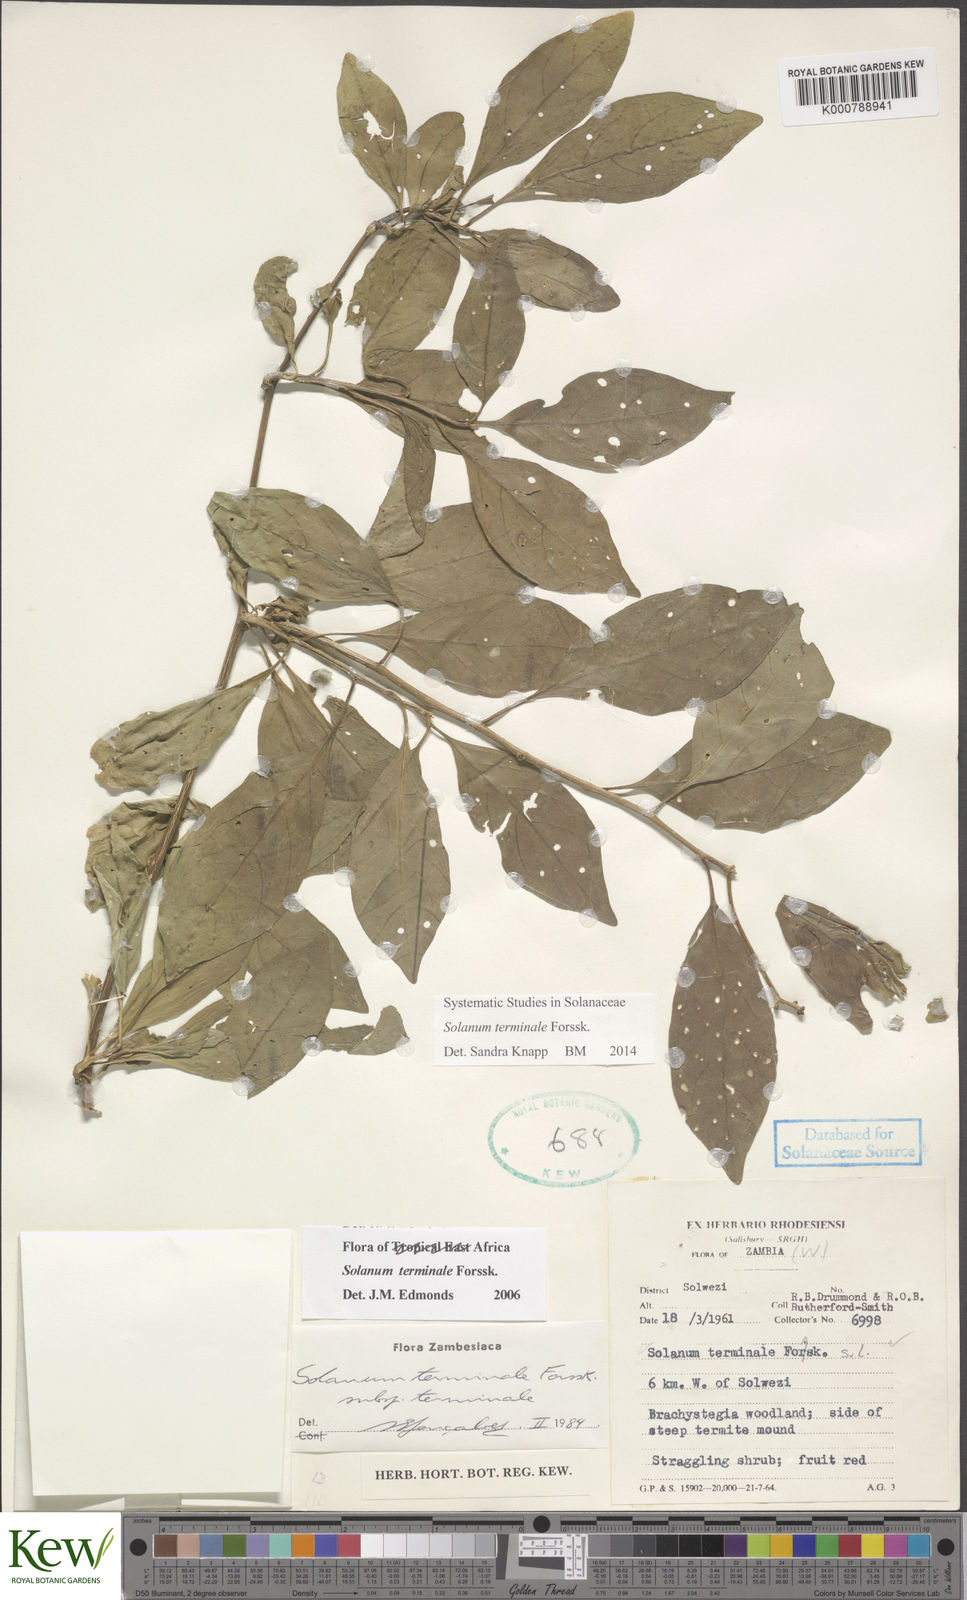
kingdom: Plantae
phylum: Tracheophyta
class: Magnoliopsida
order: Solanales
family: Solanaceae
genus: Solanum
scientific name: Solanum terminale
